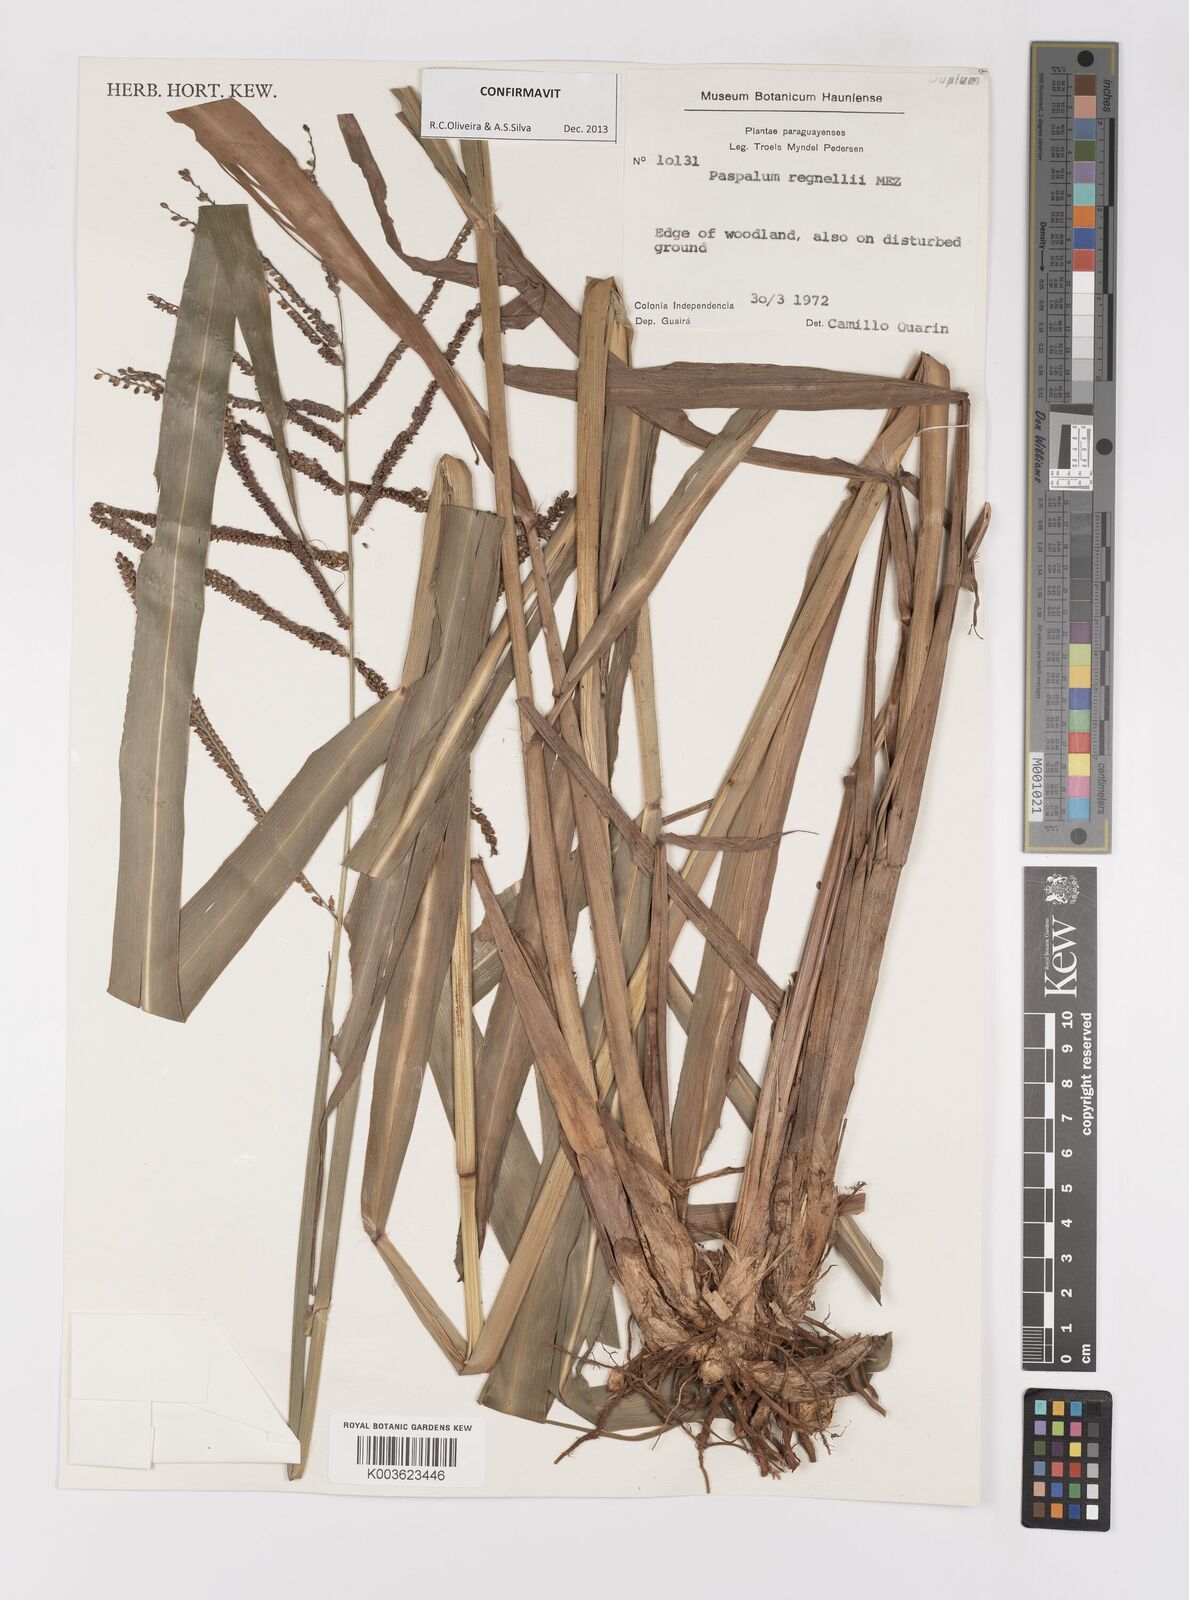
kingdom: Plantae
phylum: Tracheophyta
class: Liliopsida
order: Poales
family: Poaceae
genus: Paspalum
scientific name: Paspalum conspersum
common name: Scattered paspalum
